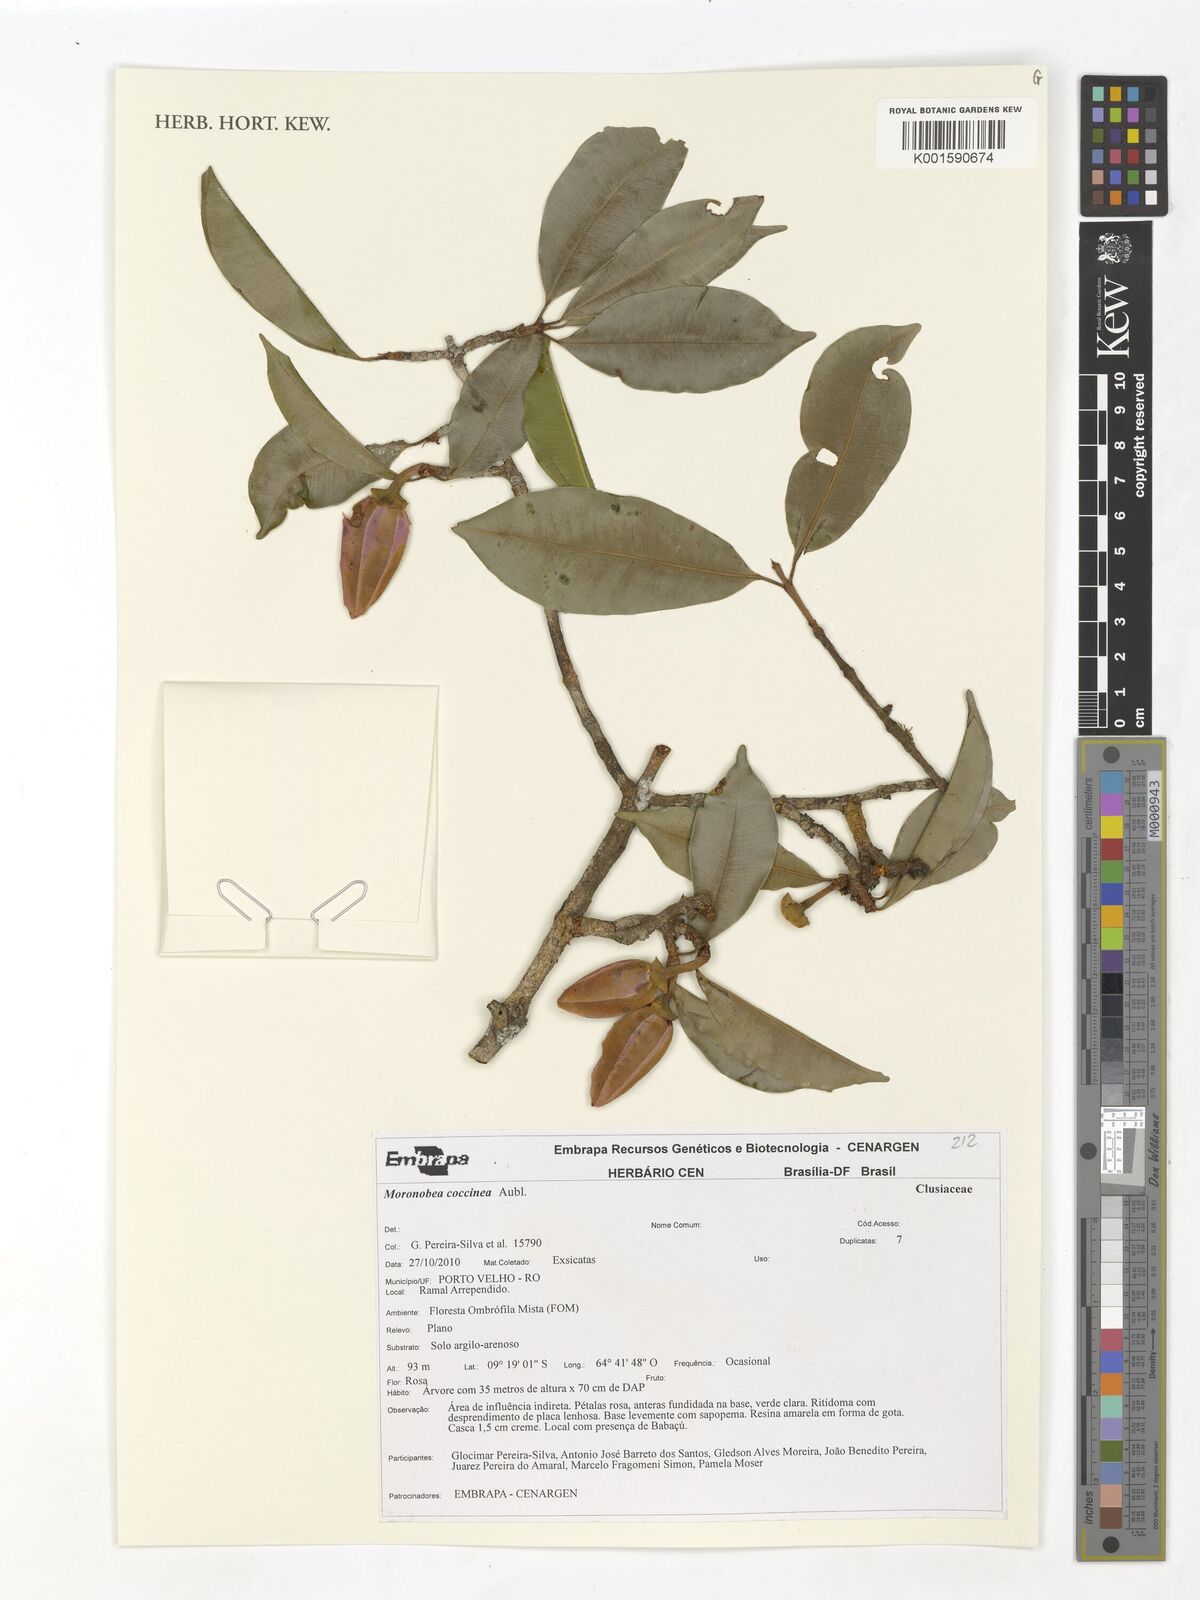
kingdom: Plantae
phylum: Tracheophyta
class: Magnoliopsida
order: Malpighiales
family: Clusiaceae
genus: Moronobea
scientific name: Moronobea coccinea
